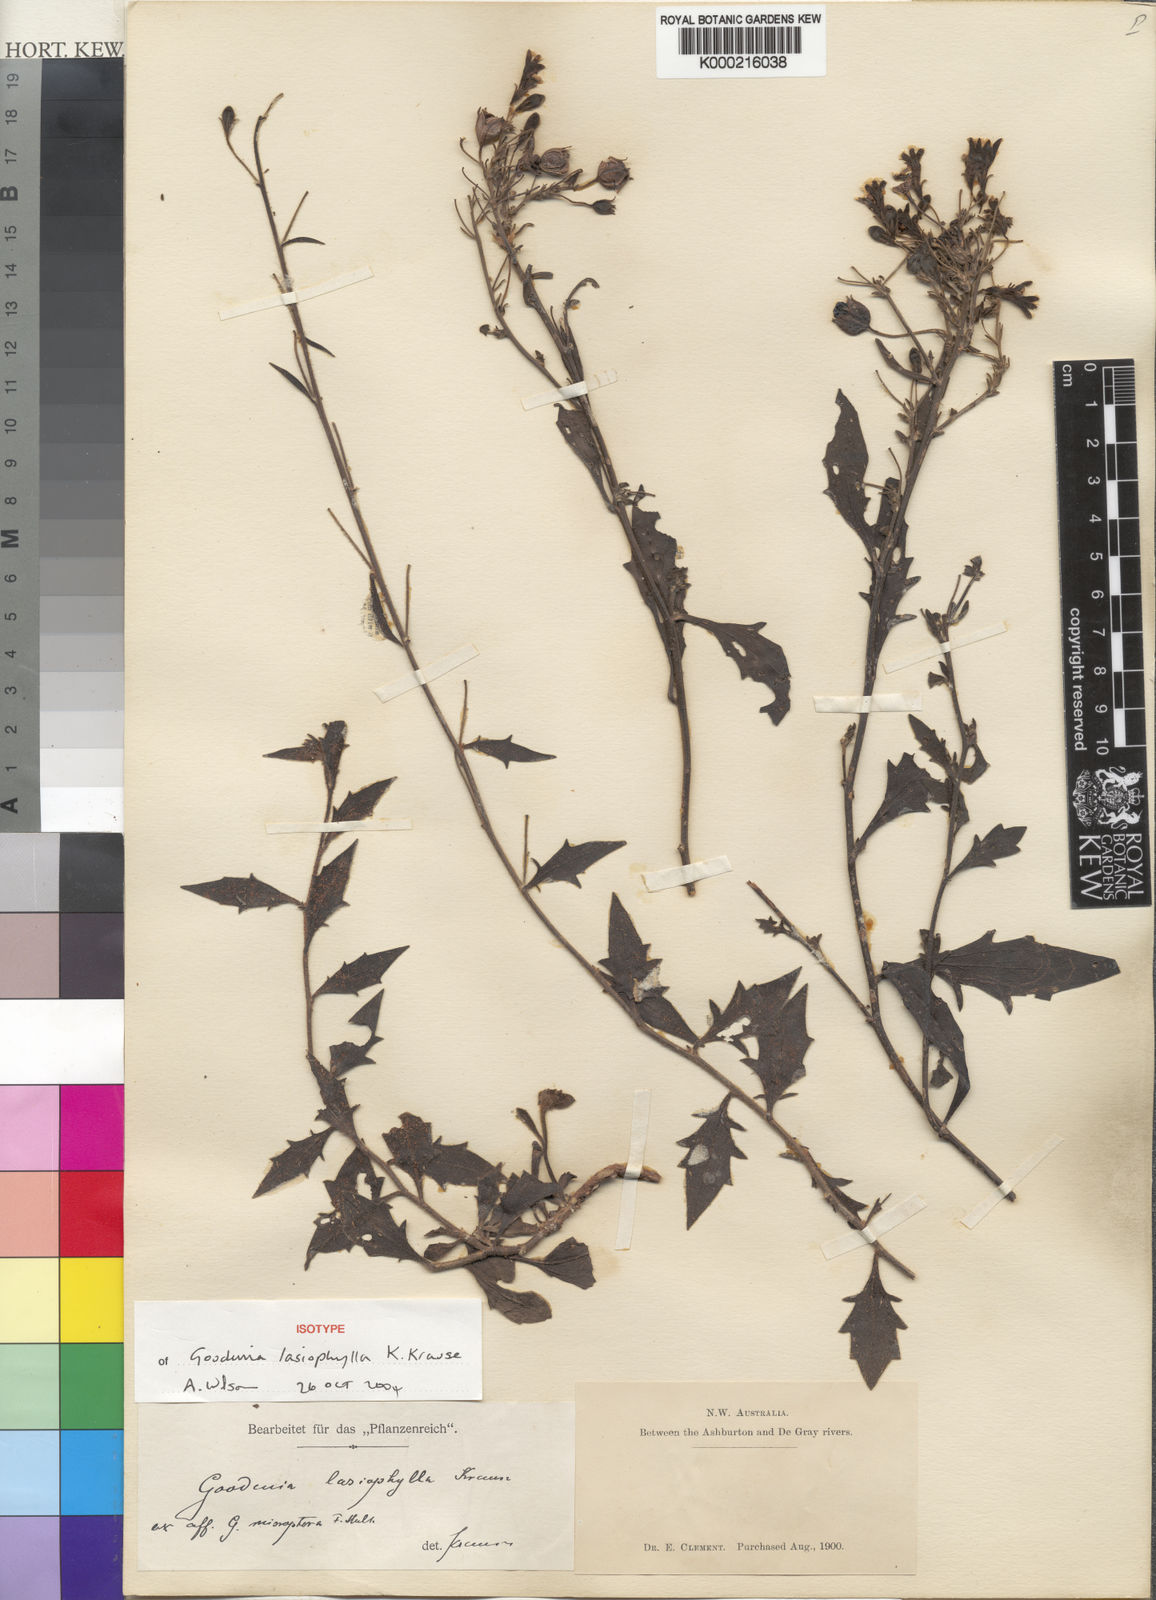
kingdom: Plantae
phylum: Tracheophyta
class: Magnoliopsida
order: Asterales
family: Goodeniaceae
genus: Goodenia
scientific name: Goodenia
